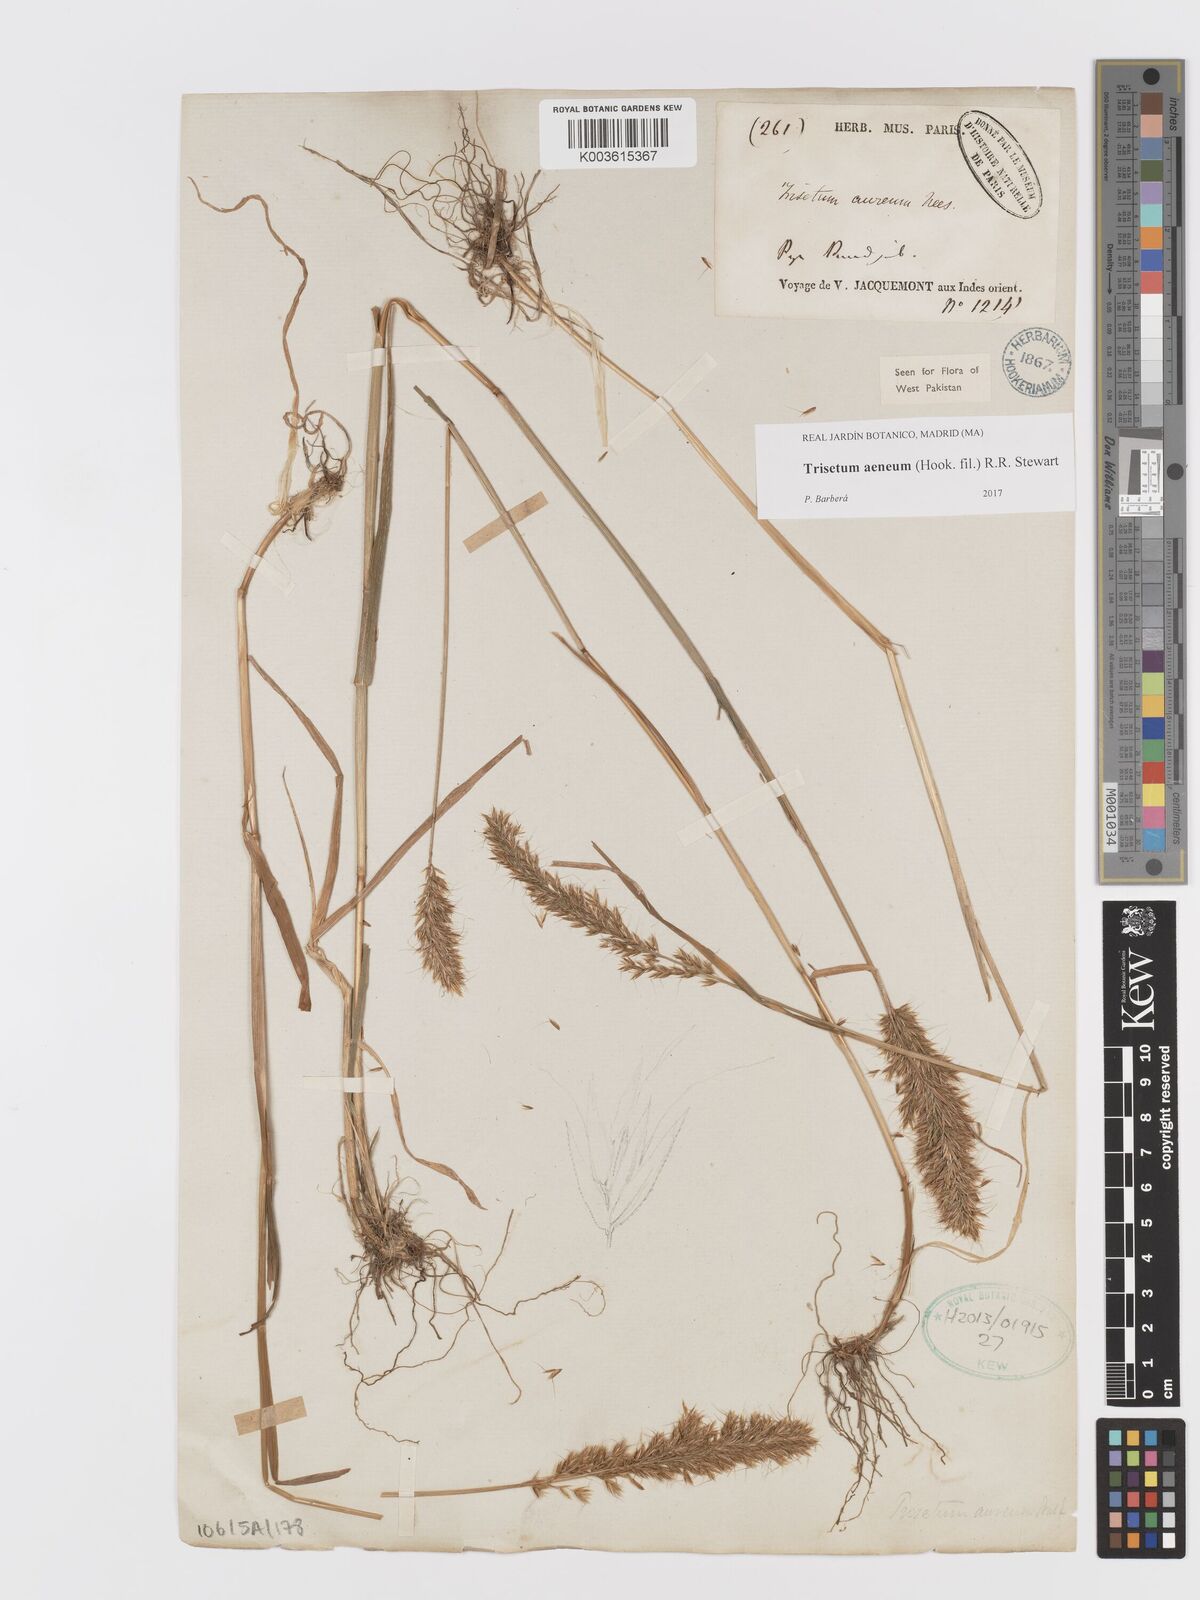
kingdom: Plantae
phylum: Tracheophyta
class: Liliopsida
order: Poales
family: Poaceae
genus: Sibirotrisetum
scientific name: Sibirotrisetum aeneum
